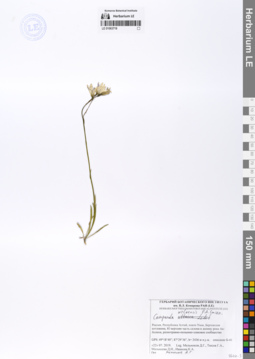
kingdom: Plantae
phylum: Tracheophyta
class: Magnoliopsida
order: Asterales
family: Campanulaceae
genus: Campanula
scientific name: Campanula stevenii
